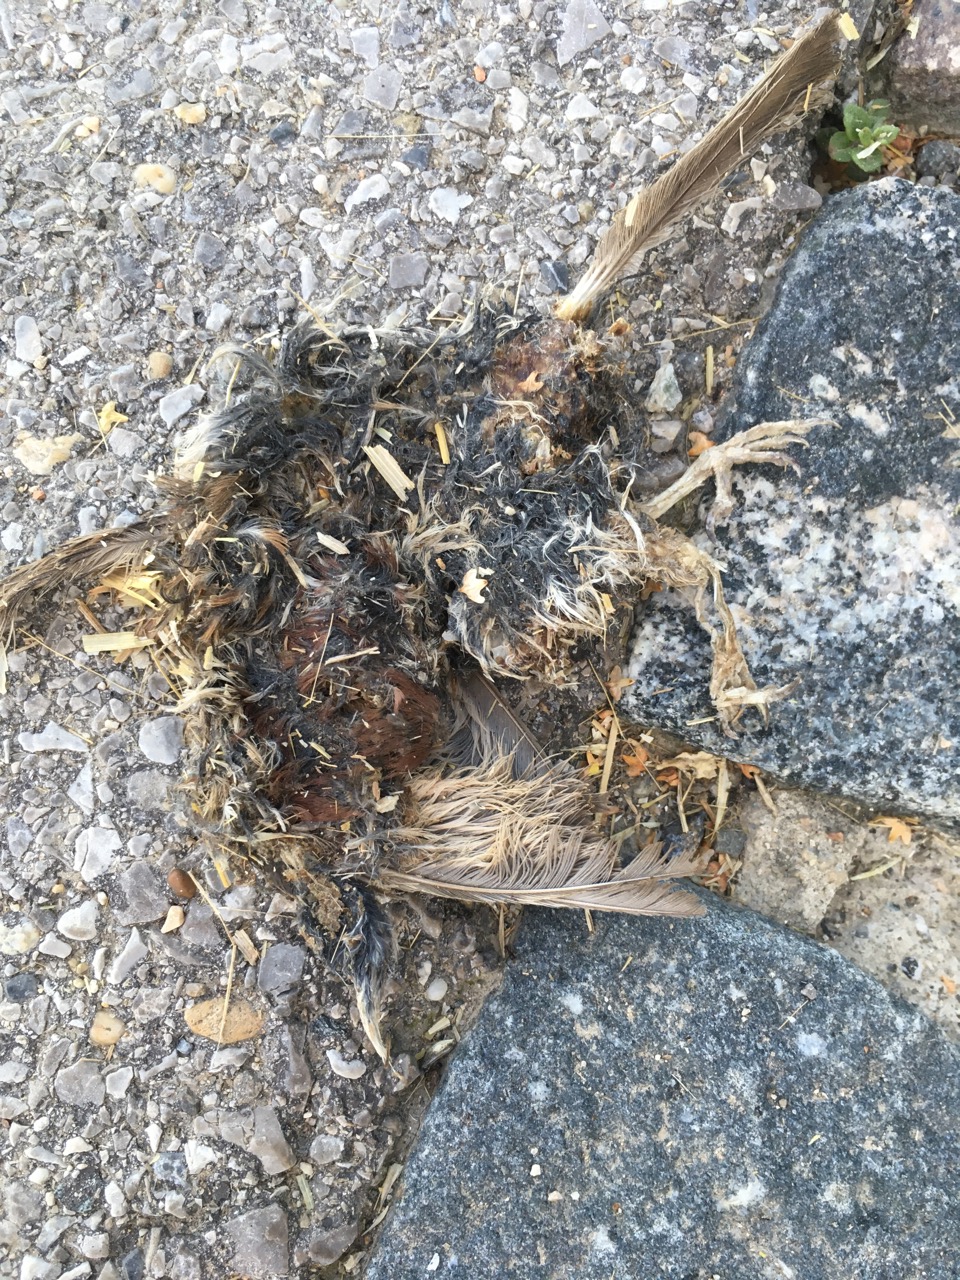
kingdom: Animalia
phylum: Chordata
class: Aves
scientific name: Aves
